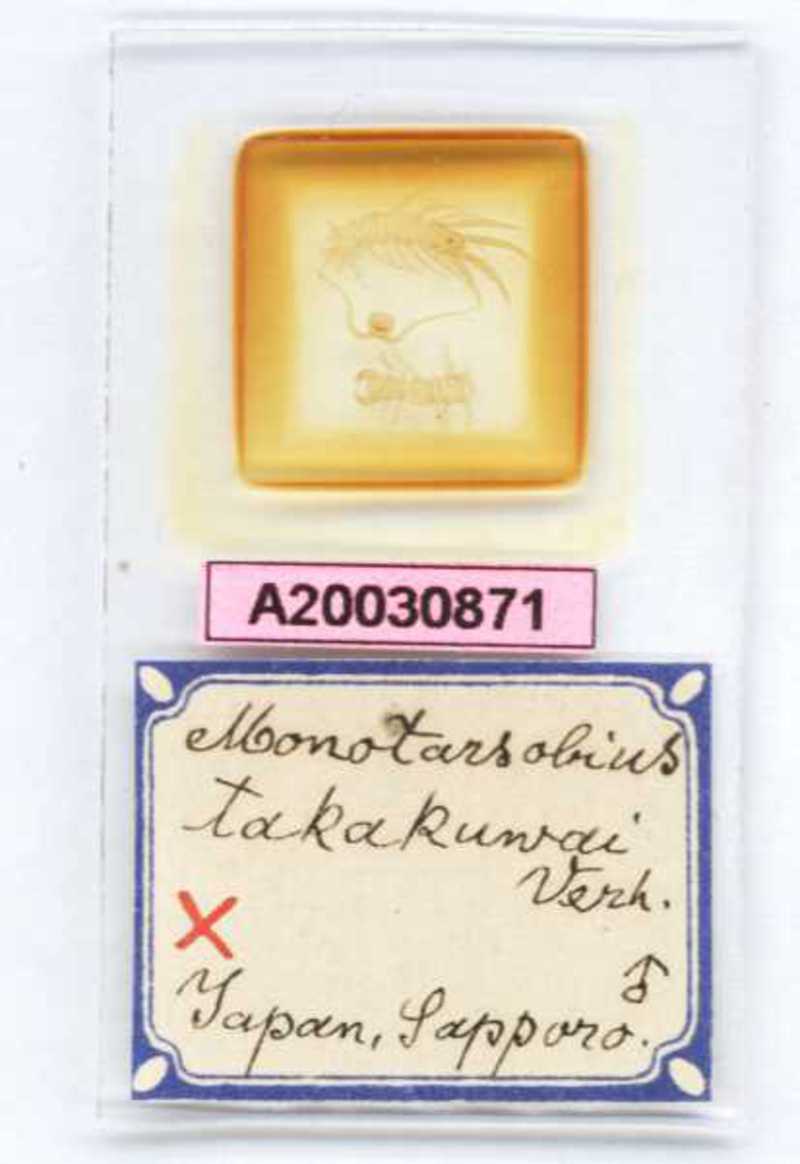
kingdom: Animalia
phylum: Arthropoda
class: Chilopoda
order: Lithobiomorpha
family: Lithobiidae
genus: Monotarsobius
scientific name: Monotarsobius
